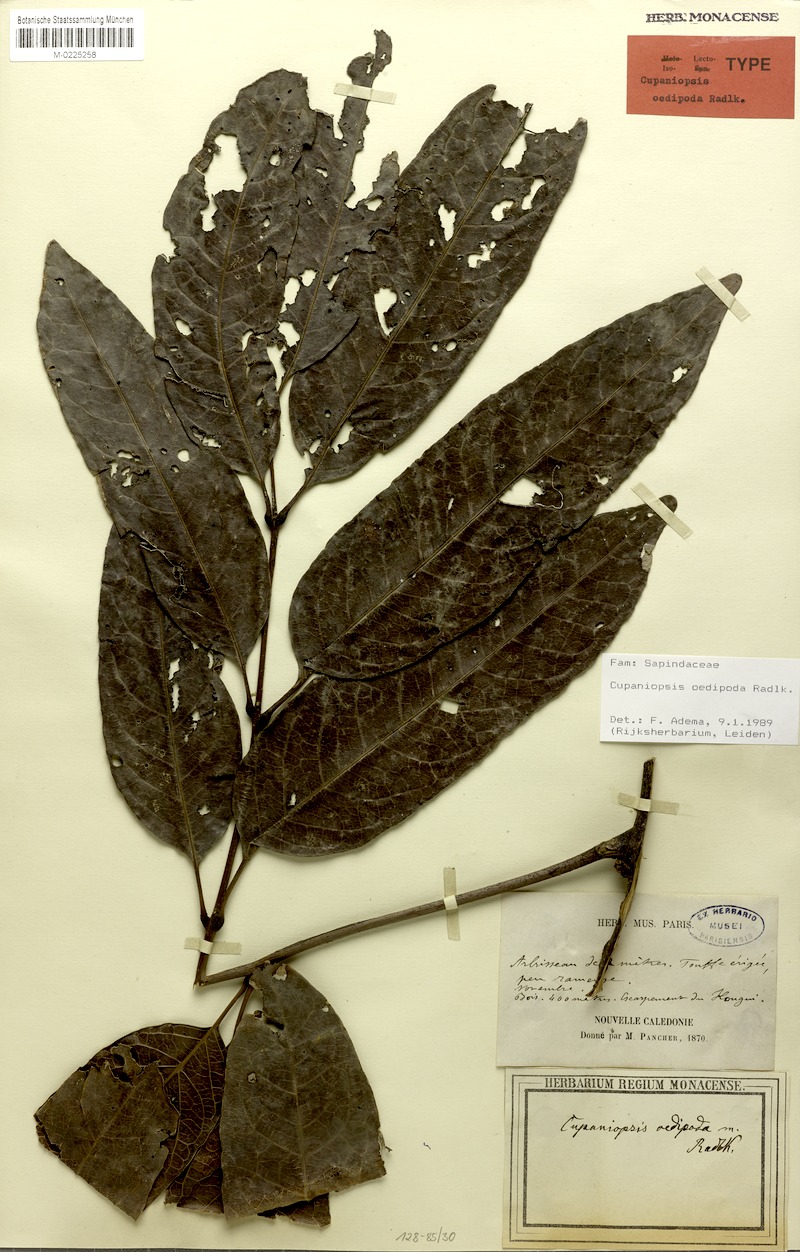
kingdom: Plantae
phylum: Tracheophyta
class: Magnoliopsida
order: Sapindales
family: Sapindaceae
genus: Lepidocupania
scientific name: Lepidocupania oedipoda
